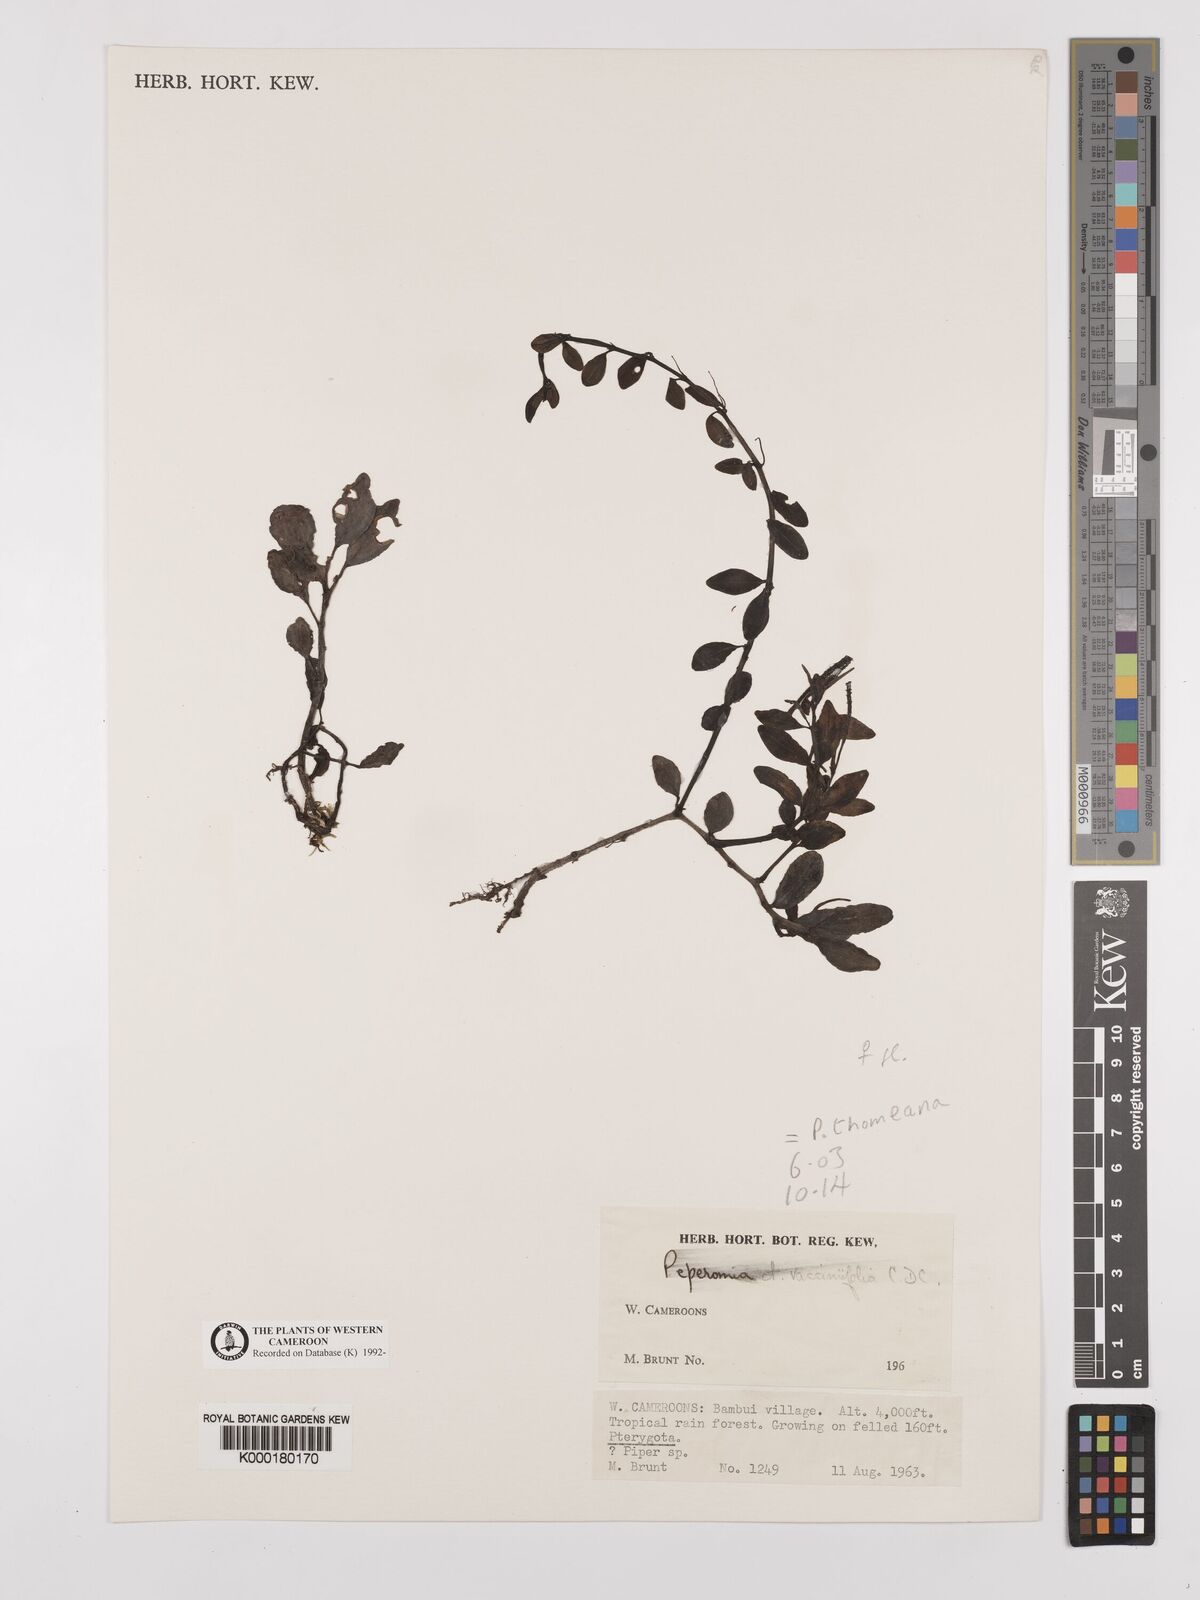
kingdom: Plantae
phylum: Tracheophyta
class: Magnoliopsida
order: Piperales
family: Piperaceae
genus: Peperomia
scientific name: Peperomia thomeana
